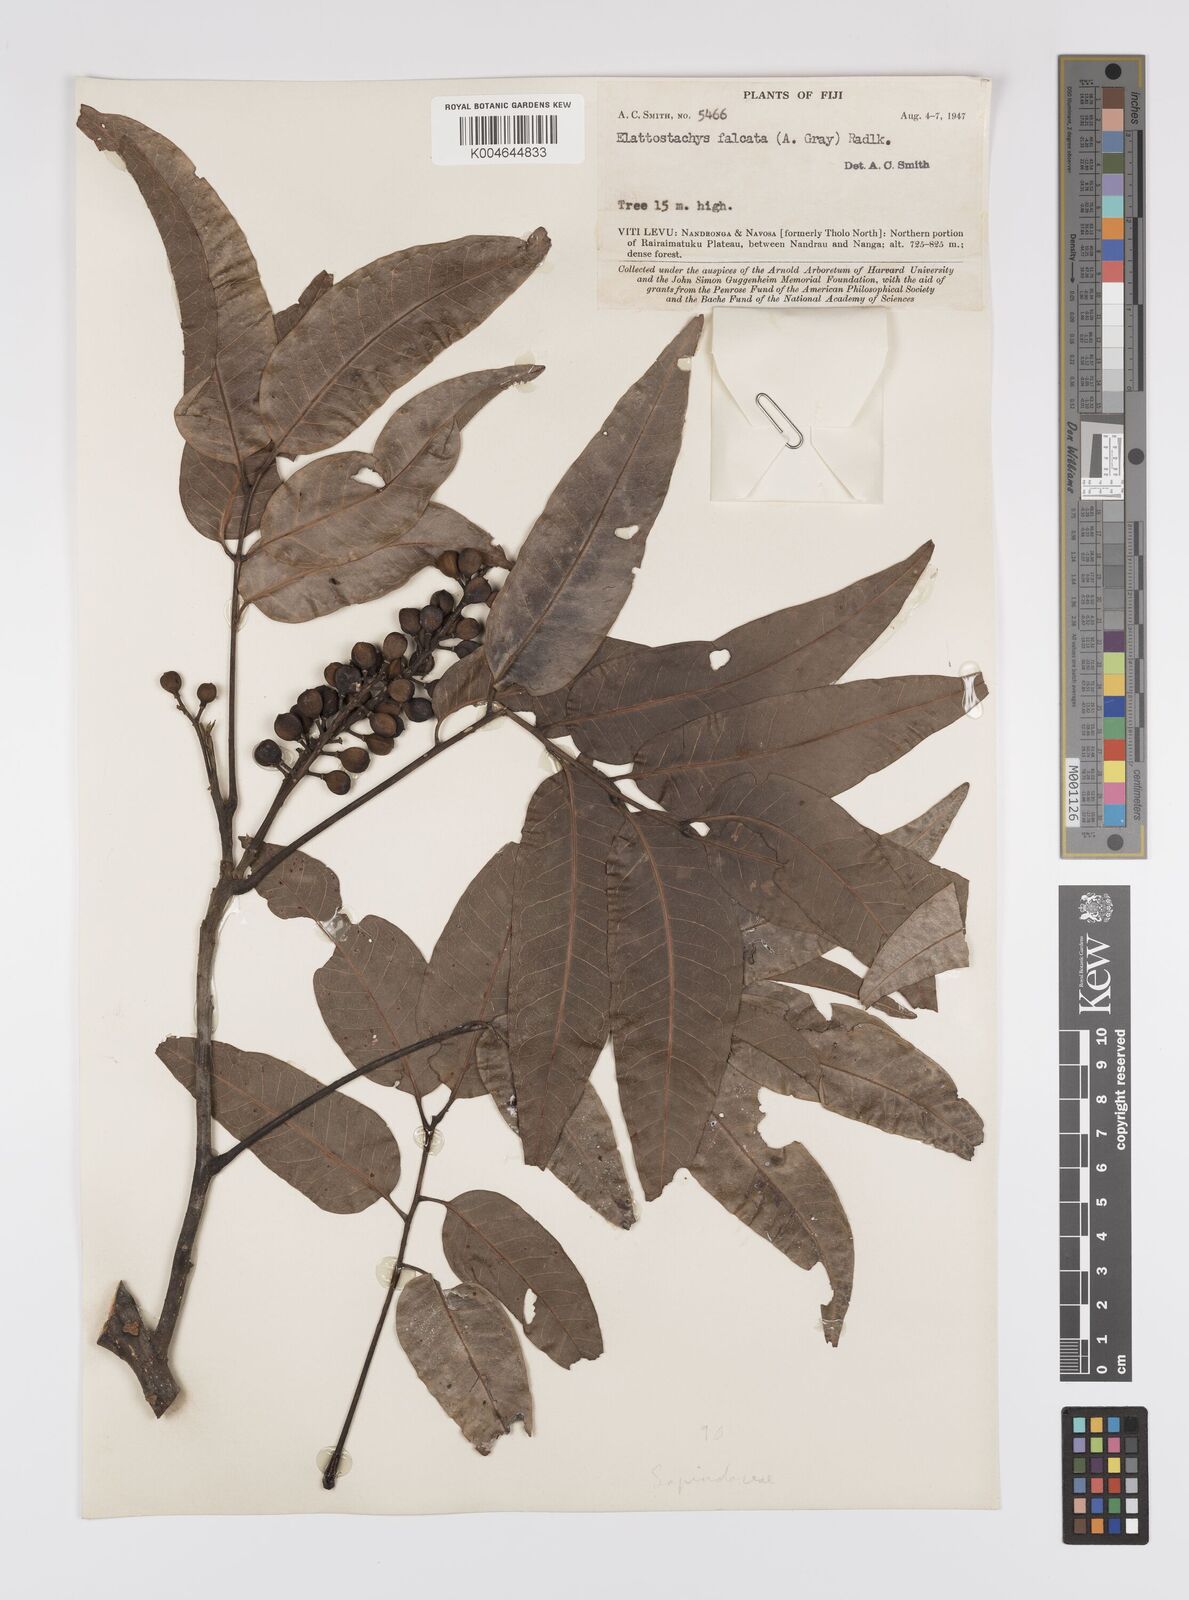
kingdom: Plantae
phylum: Tracheophyta
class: Magnoliopsida
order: Sapindales
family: Sapindaceae
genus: Elattostachys
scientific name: Elattostachys apetala
